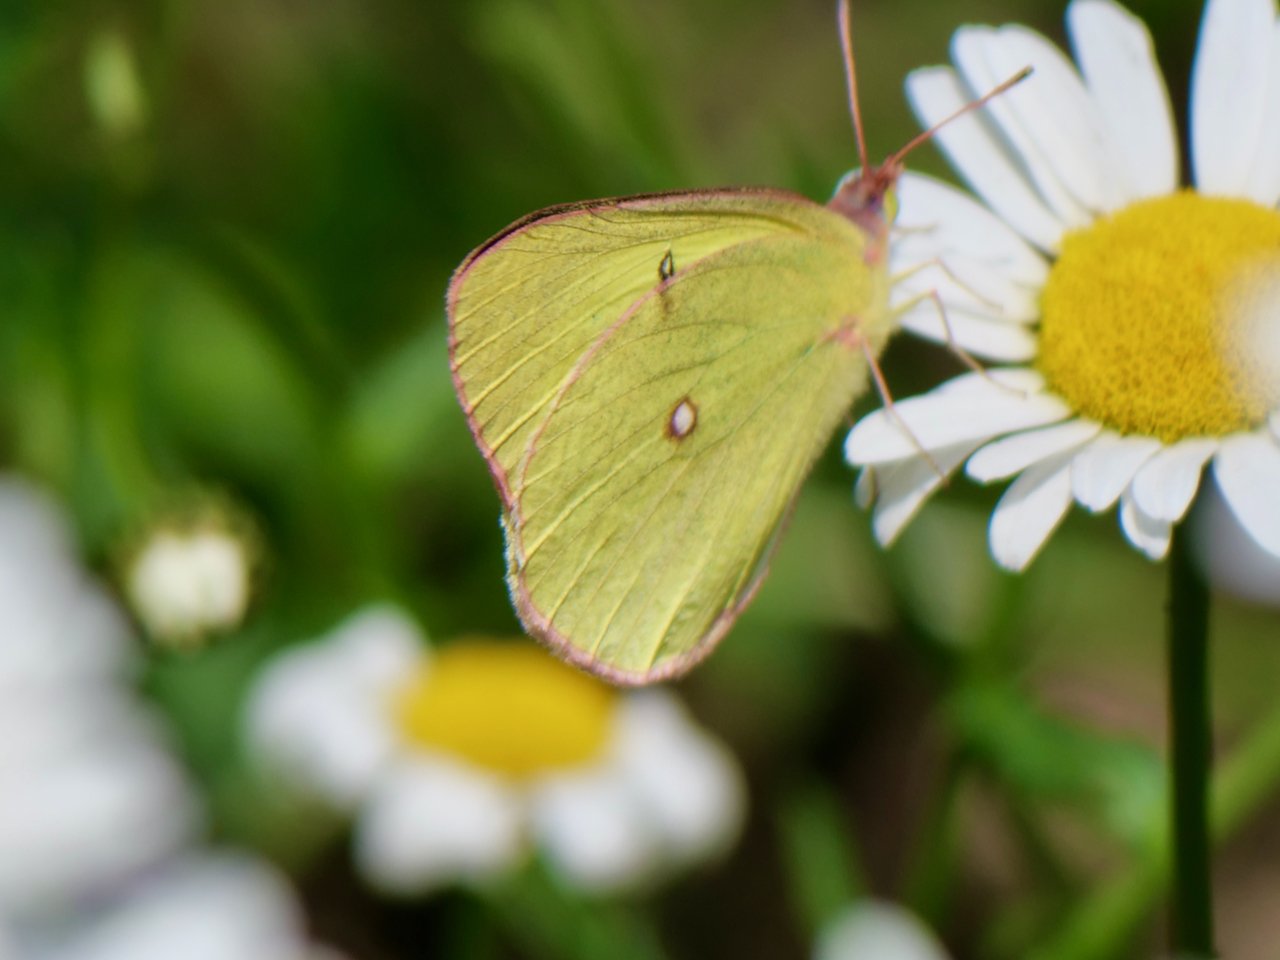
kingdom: Animalia
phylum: Arthropoda
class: Insecta
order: Lepidoptera
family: Pieridae
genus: Colias
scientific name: Colias interior
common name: Pink-edged Sulphur
